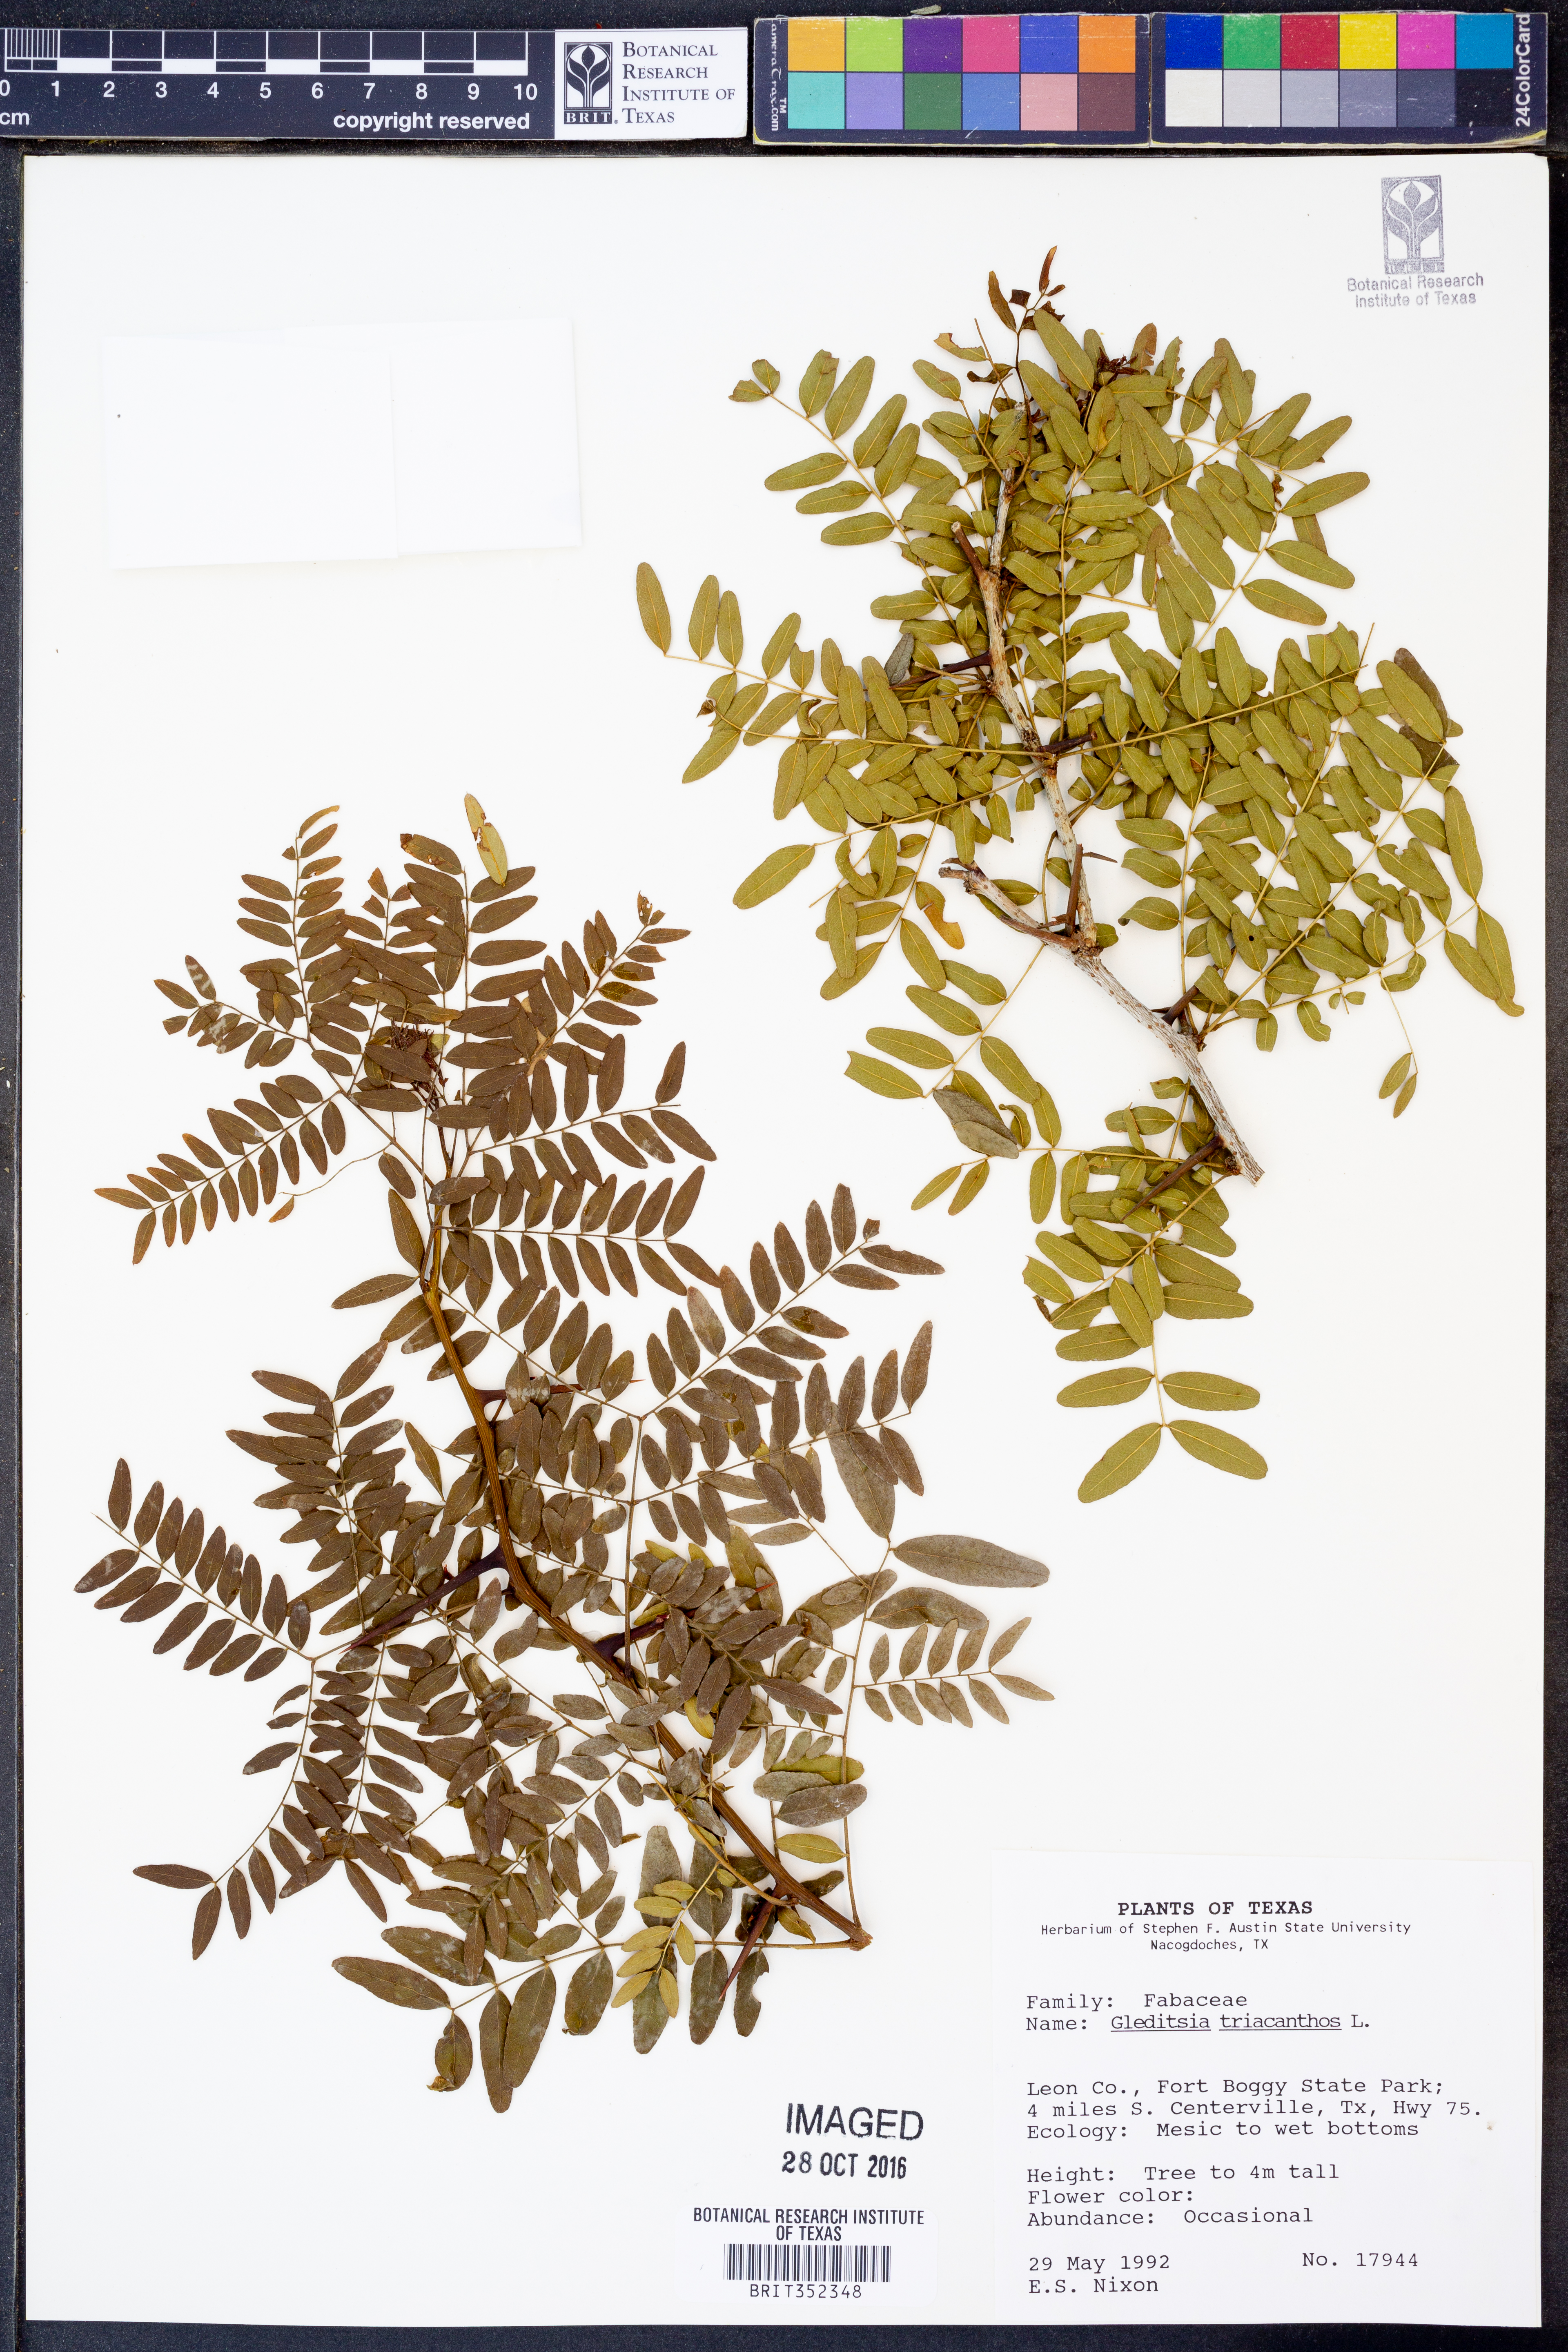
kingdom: Plantae
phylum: Tracheophyta
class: Magnoliopsida
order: Fabales
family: Fabaceae
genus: Gleditsia
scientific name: Gleditsia triacanthos
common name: Common honeylocust
